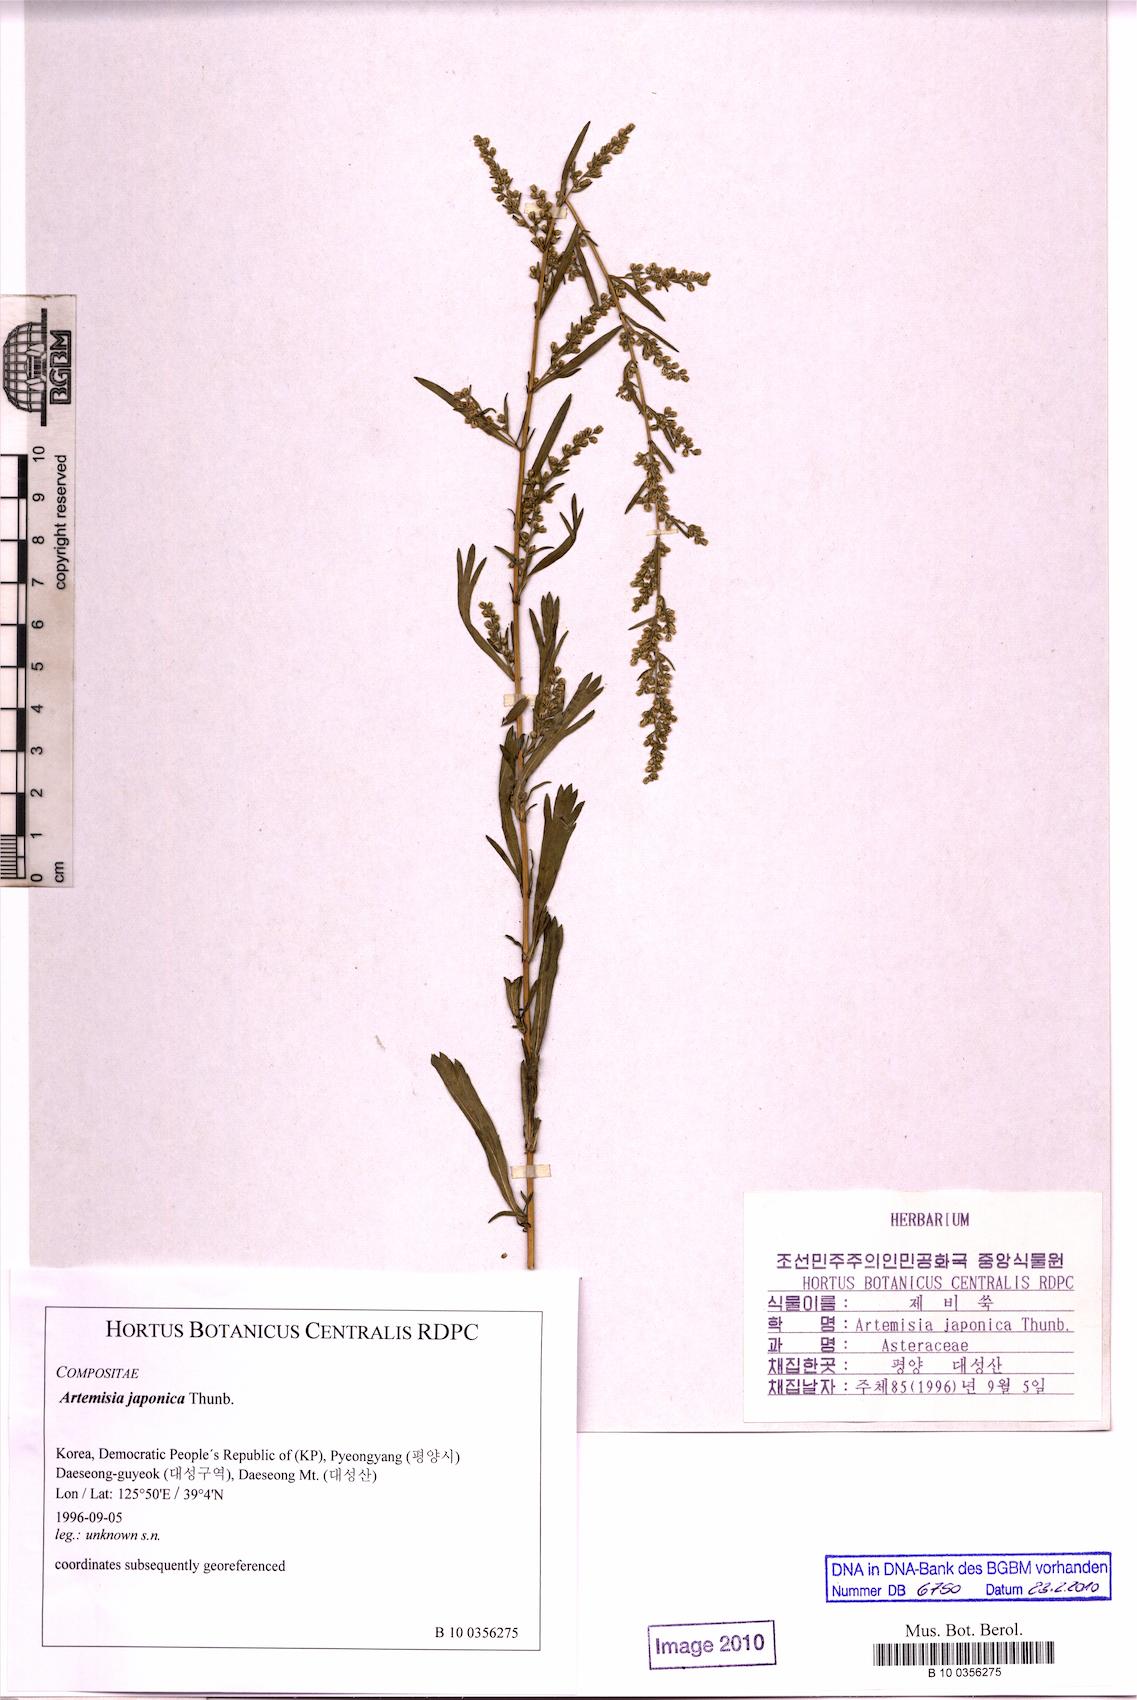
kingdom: Plantae
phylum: Tracheophyta
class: Magnoliopsida
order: Asterales
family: Asteraceae
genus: Artemisia
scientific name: Artemisia japonica
